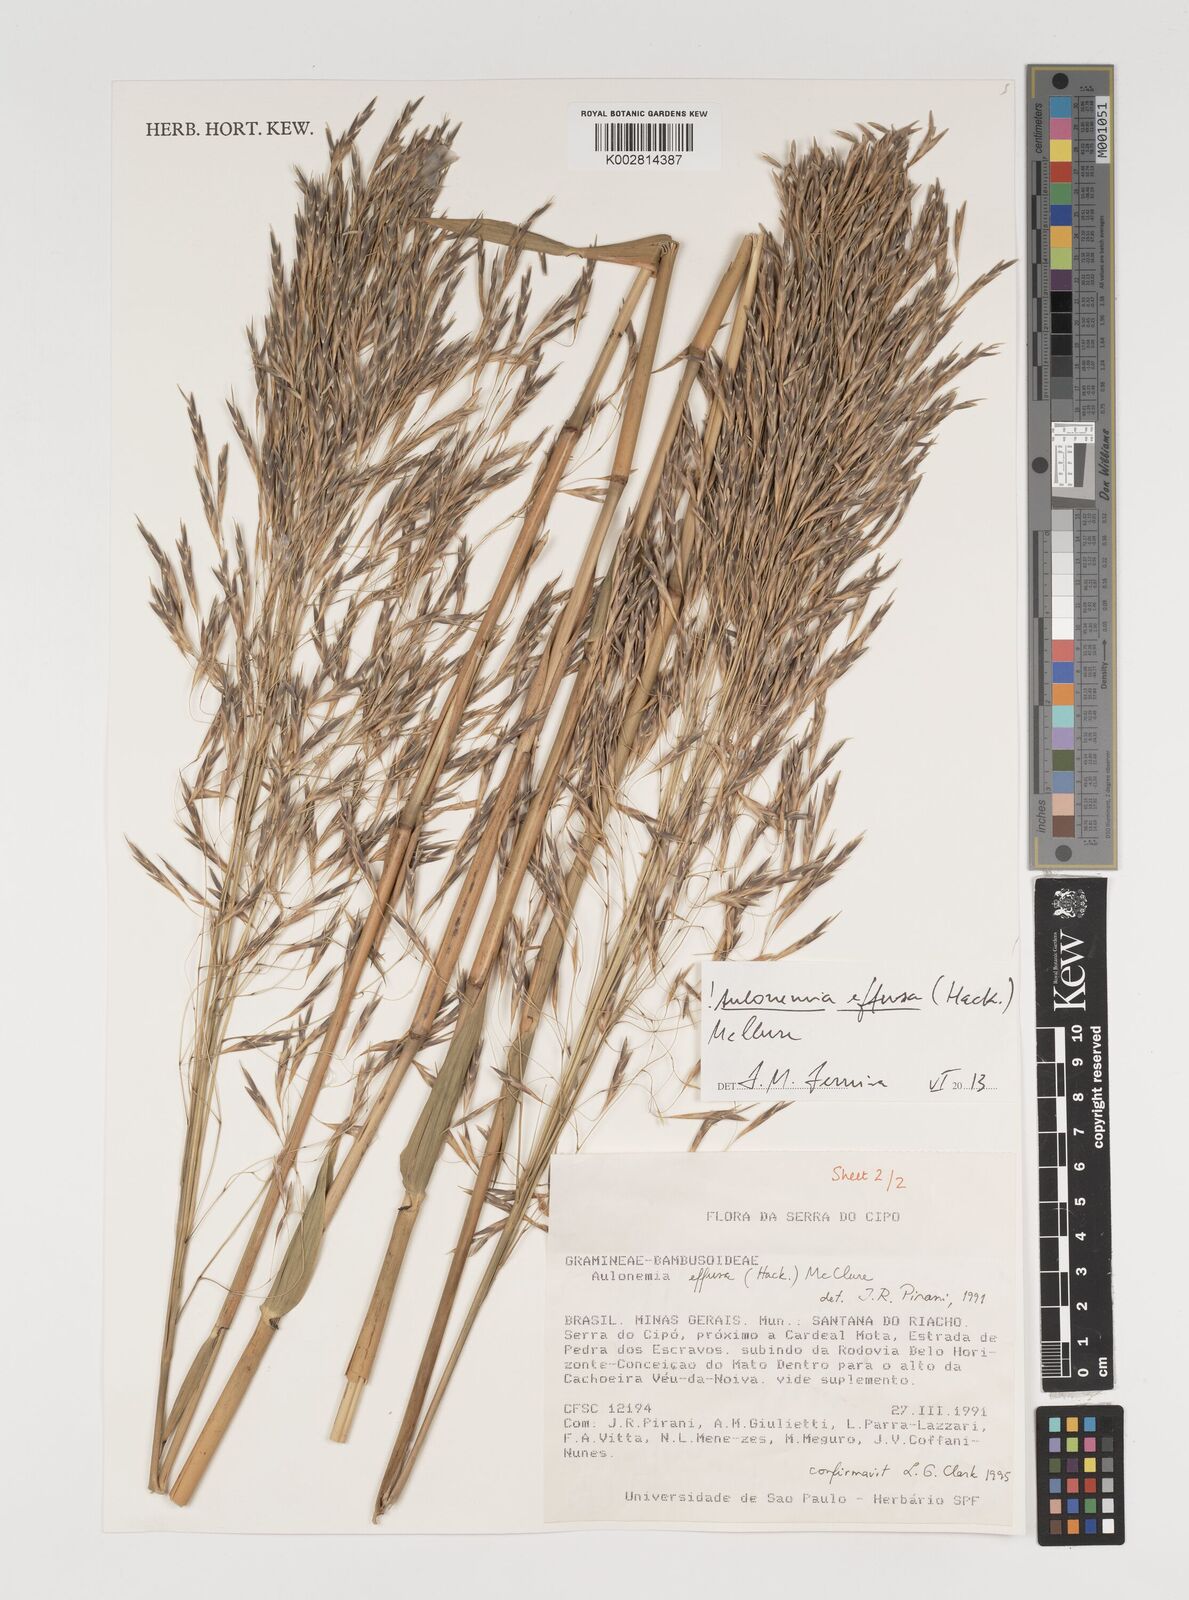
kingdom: Plantae
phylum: Tracheophyta
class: Liliopsida
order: Poales
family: Poaceae
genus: Aulonemia
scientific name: Aulonemia effusa
